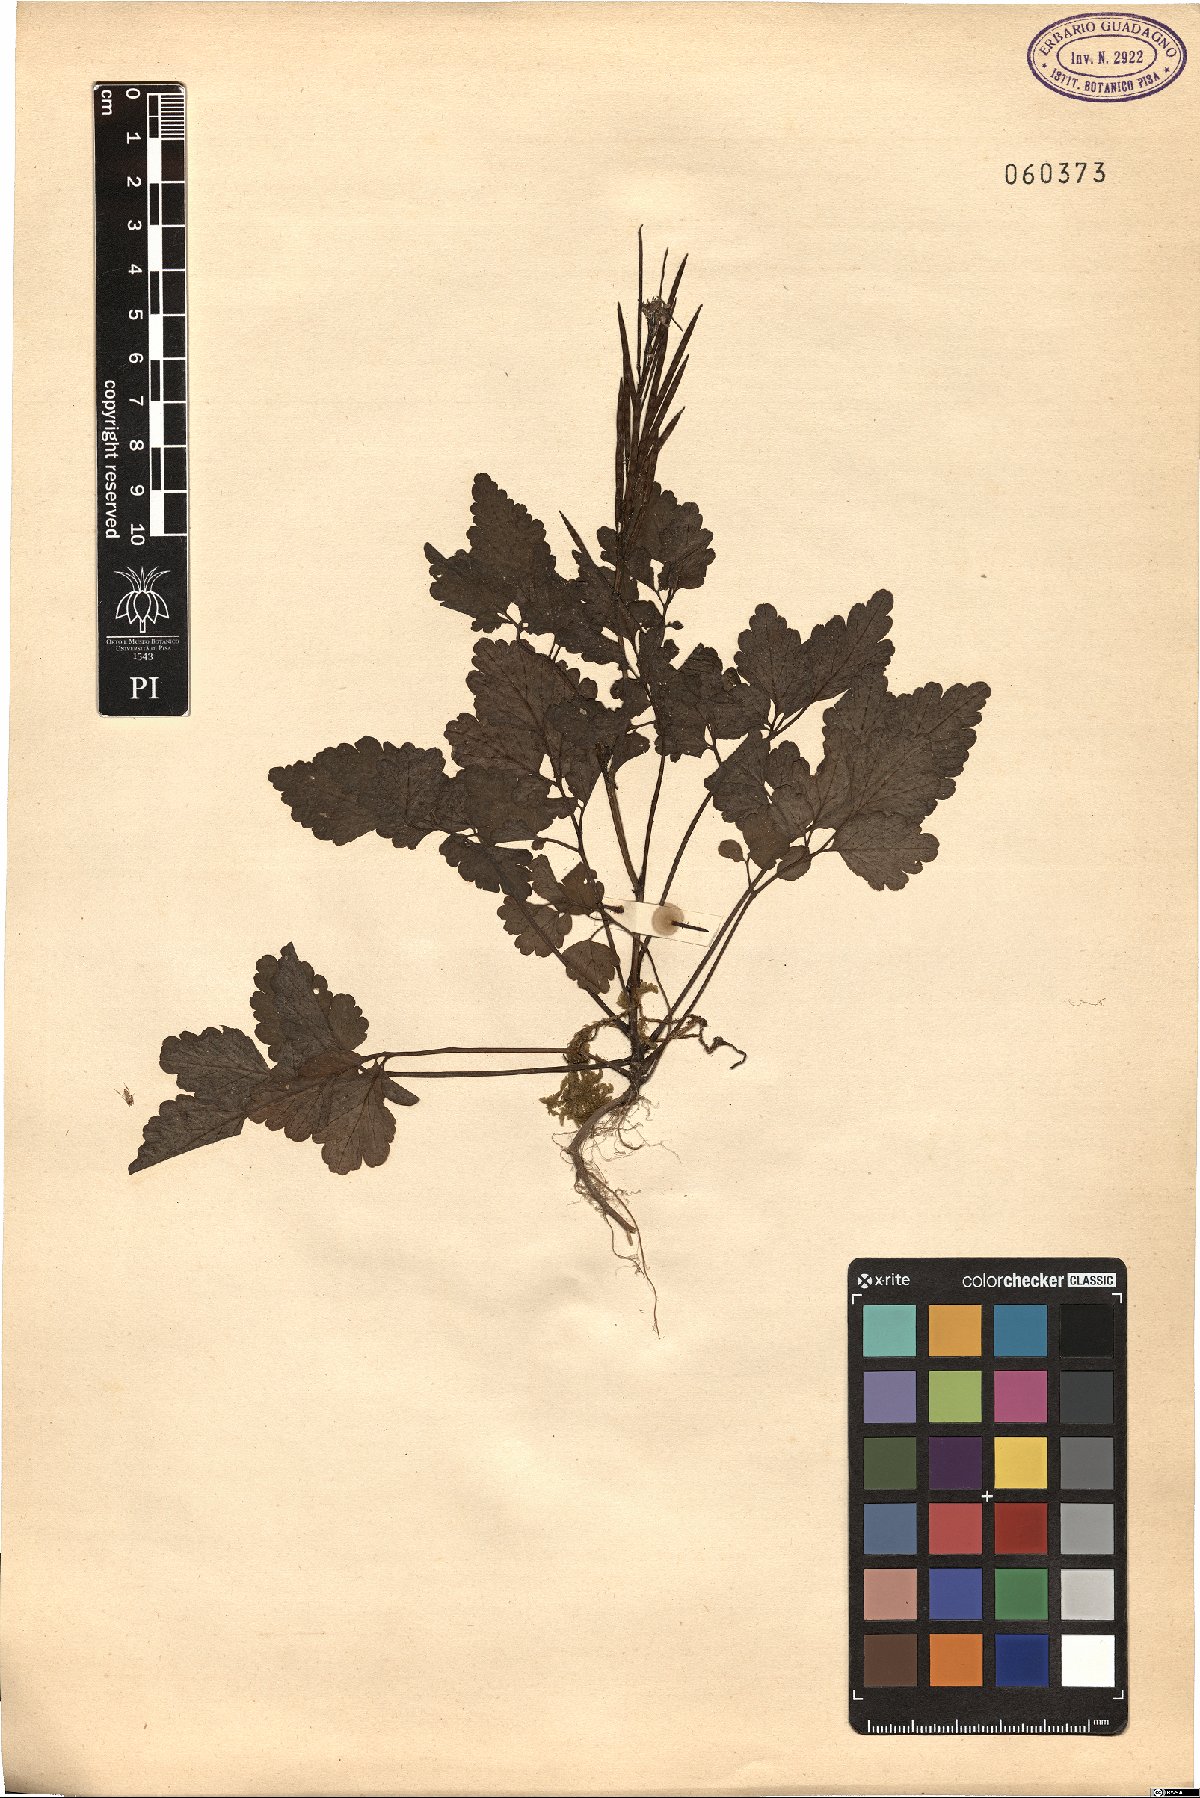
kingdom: Plantae
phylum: Tracheophyta
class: Magnoliopsida
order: Ranunculales
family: Papaveraceae
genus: Chelidonium
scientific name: Chelidonium majus
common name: Greater celandine
